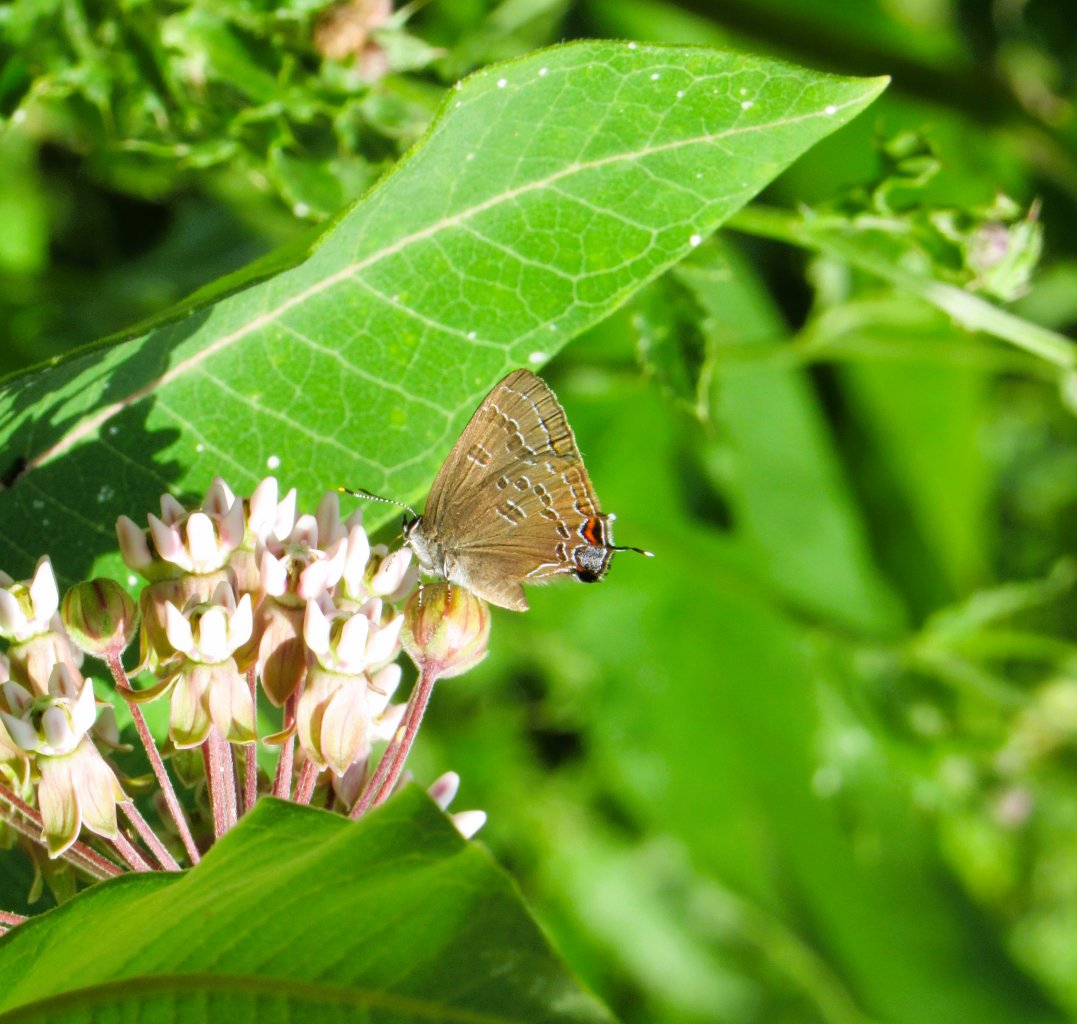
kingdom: Animalia
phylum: Arthropoda
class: Insecta
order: Lepidoptera
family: Lycaenidae
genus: Strymon
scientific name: Strymon caryaevorus
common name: Hickory Hairstreak
